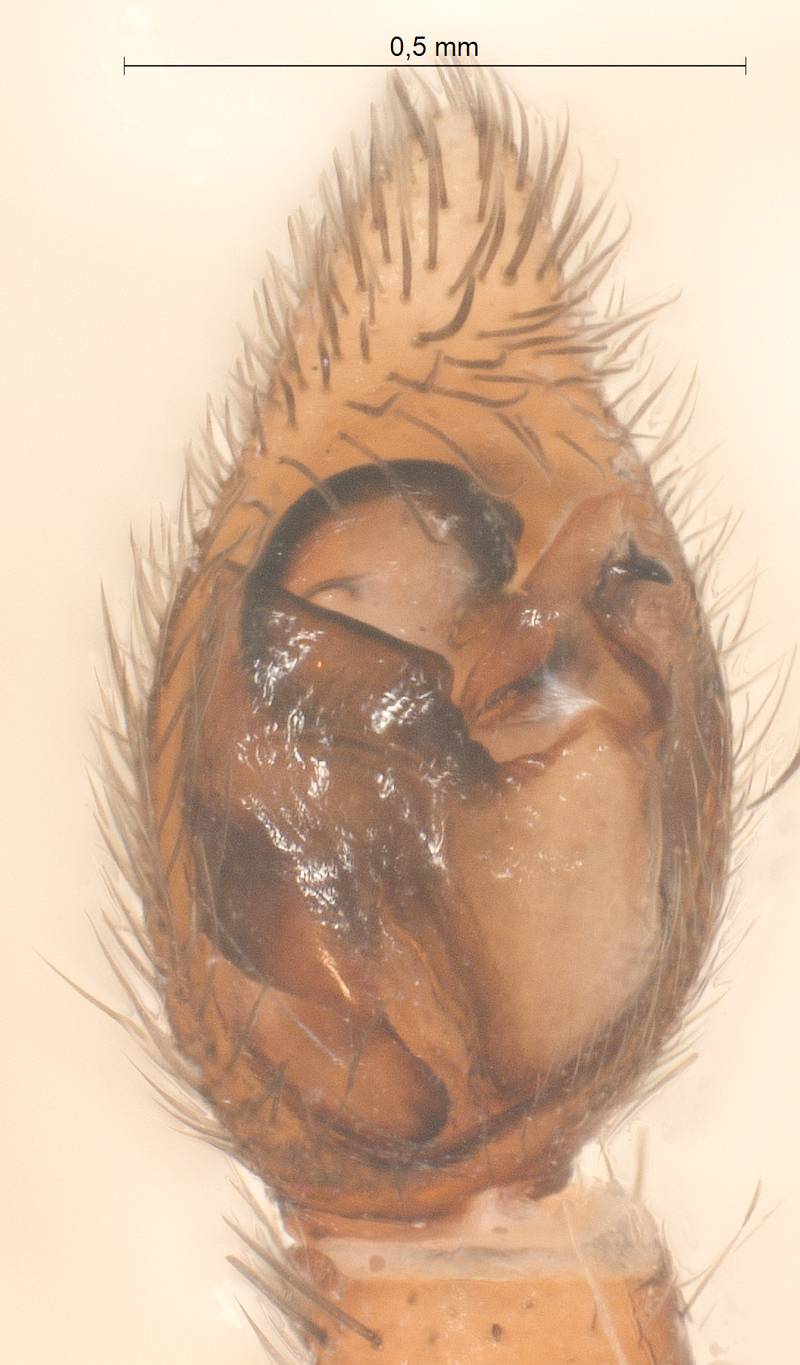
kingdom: Animalia
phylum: Arthropoda
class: Arachnida
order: Araneae
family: Lycosidae
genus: Xerolycosa
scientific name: Xerolycosa miniata
